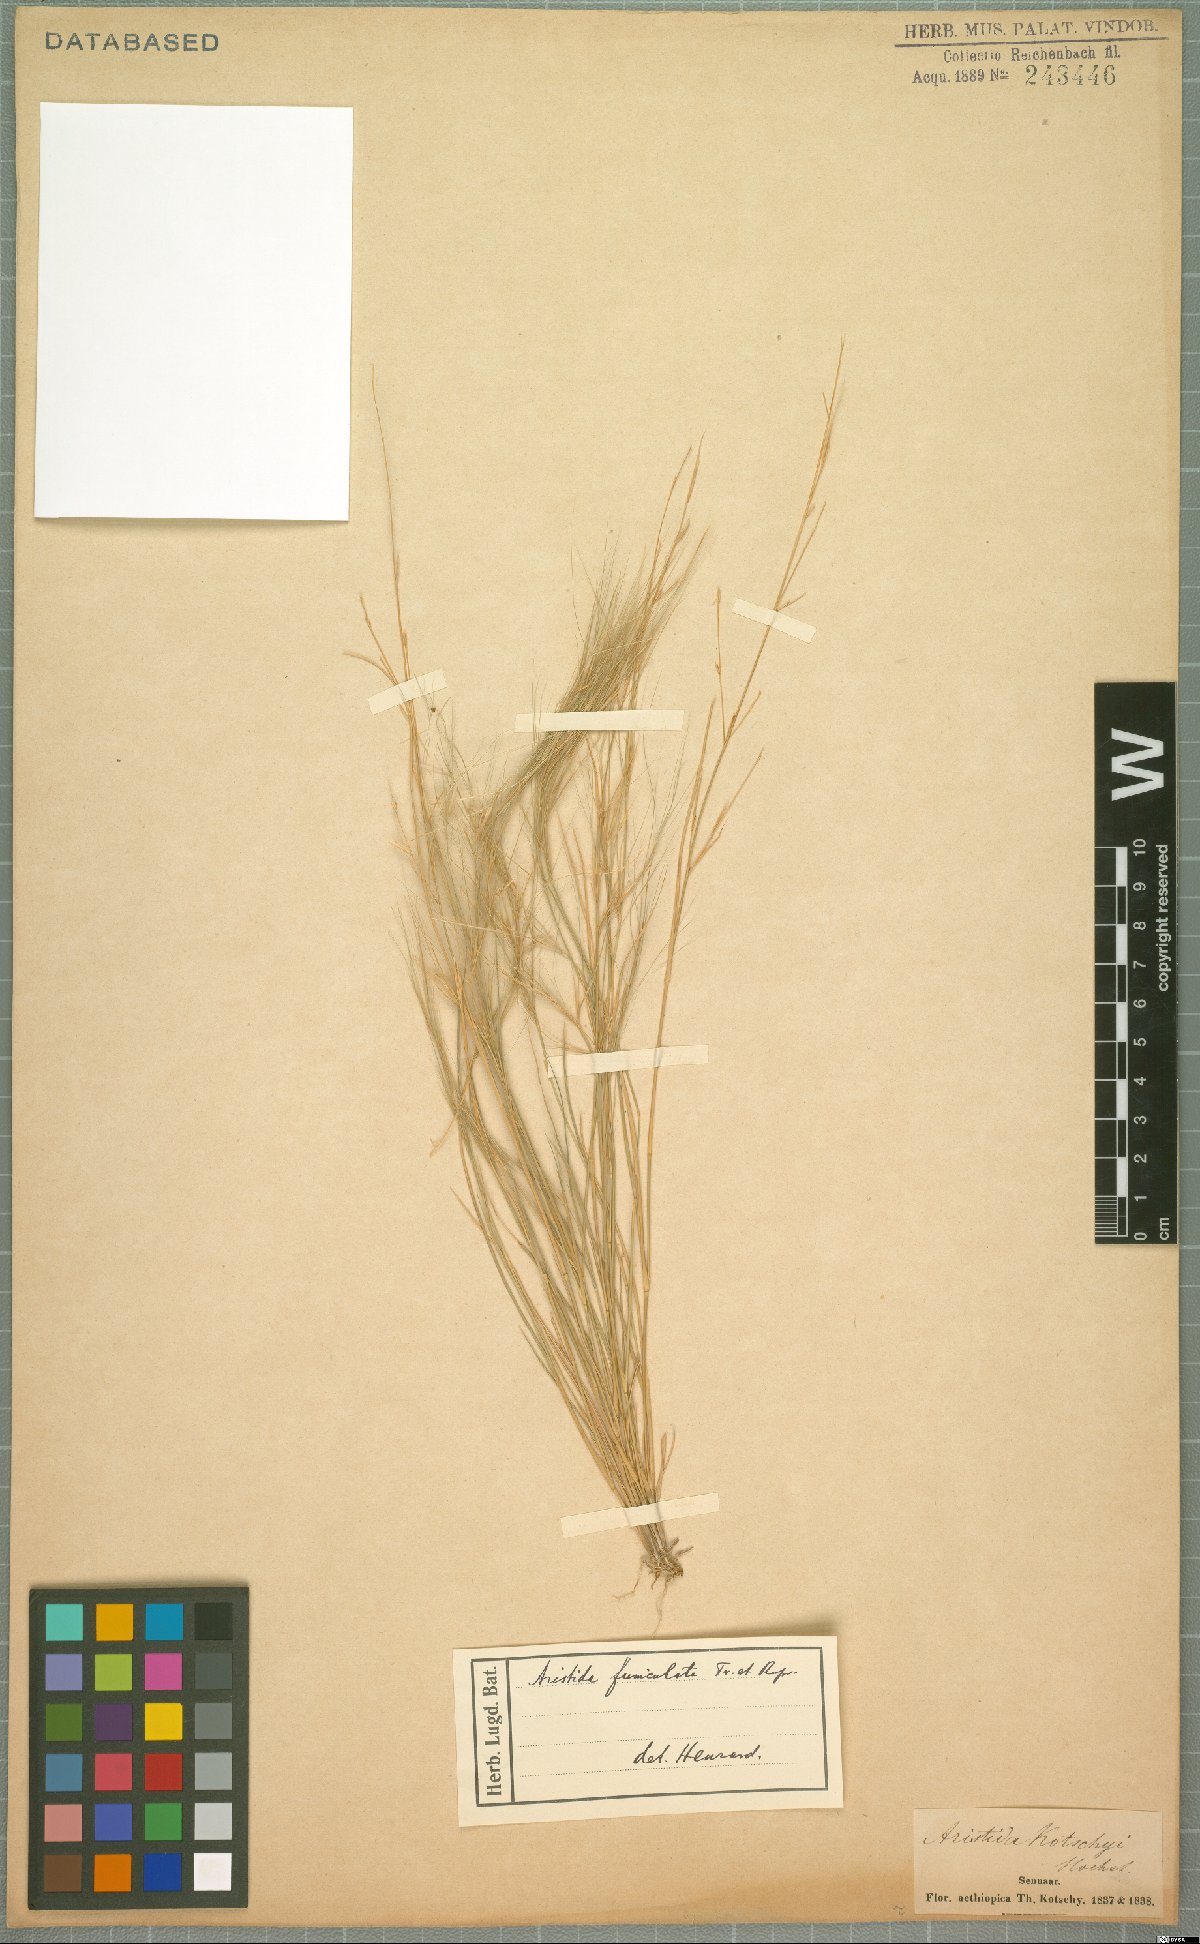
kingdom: Plantae
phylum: Tracheophyta
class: Liliopsida
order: Poales
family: Poaceae
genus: Aristida
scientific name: Aristida funiculata
